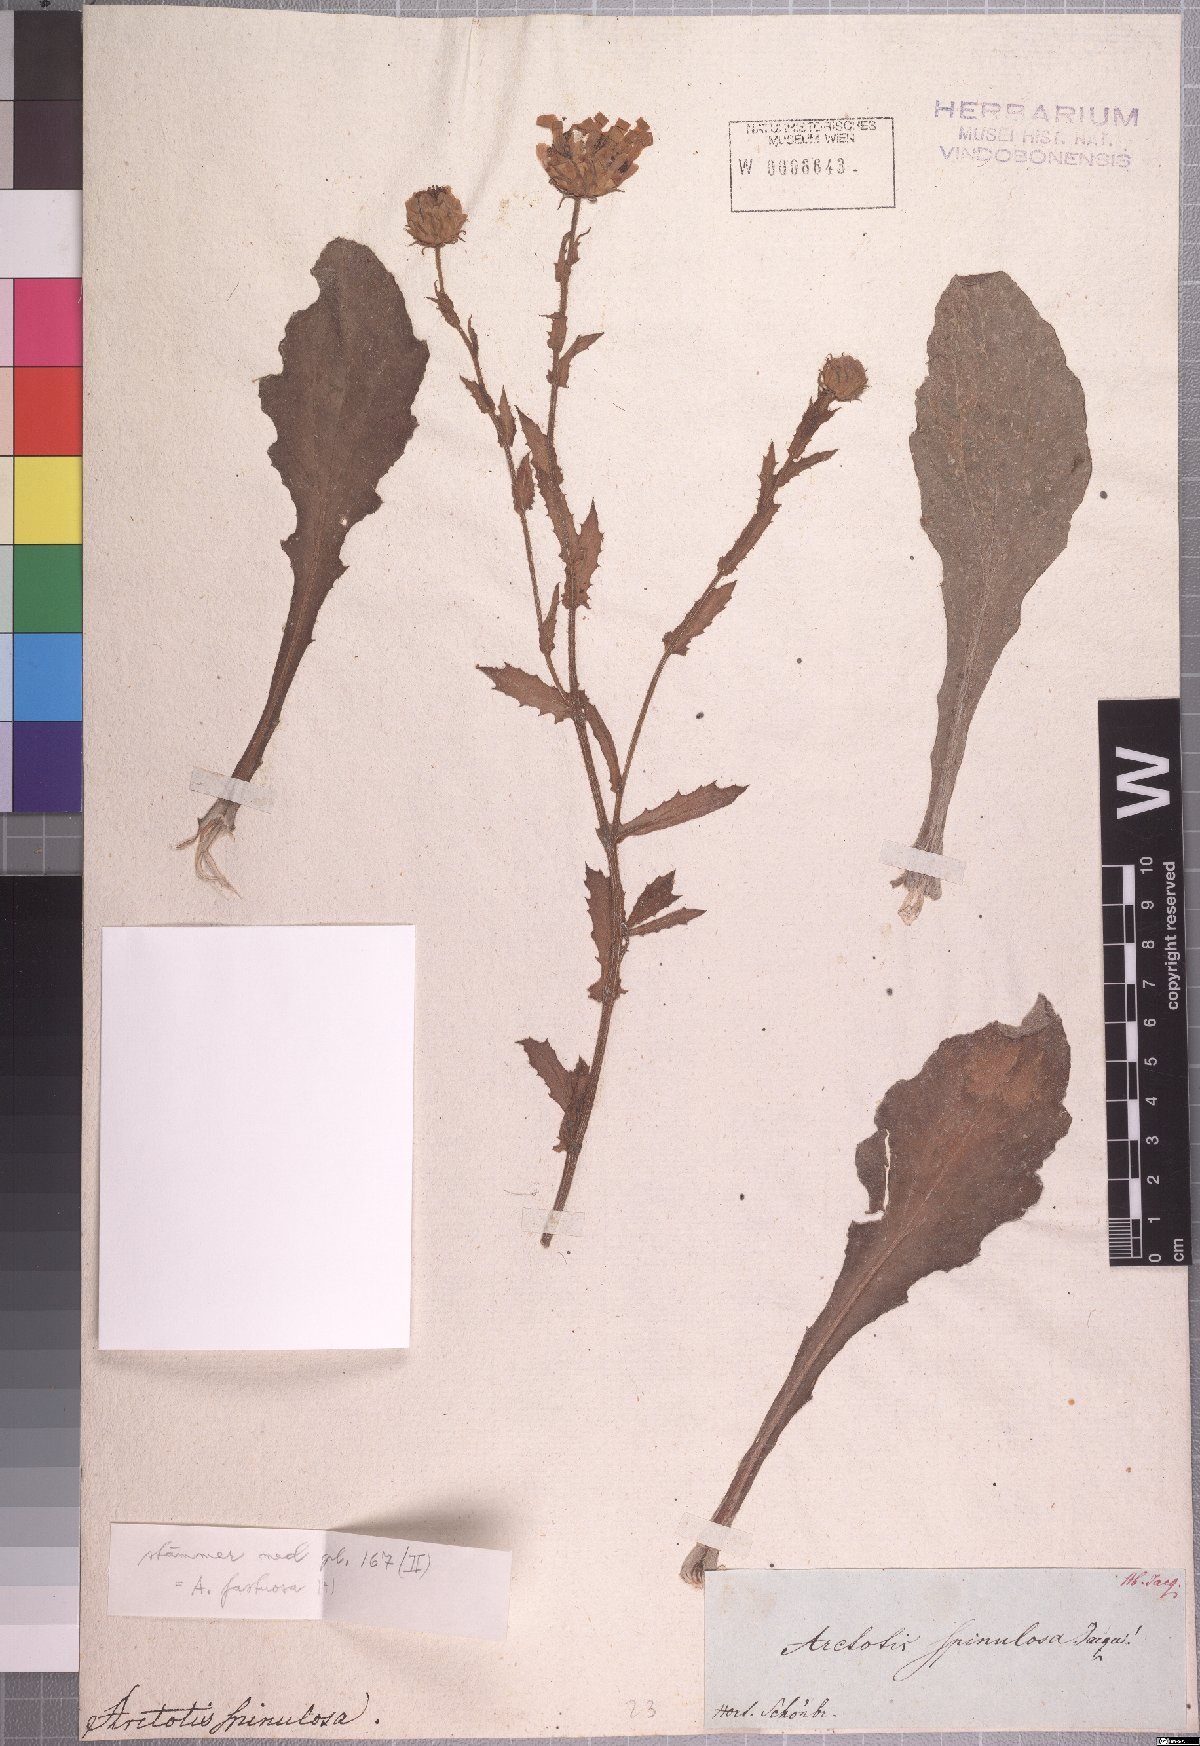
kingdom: Plantae
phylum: Tracheophyta
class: Magnoliopsida
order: Asterales
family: Asteraceae
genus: Arctotis
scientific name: Arctotis spinulosa
